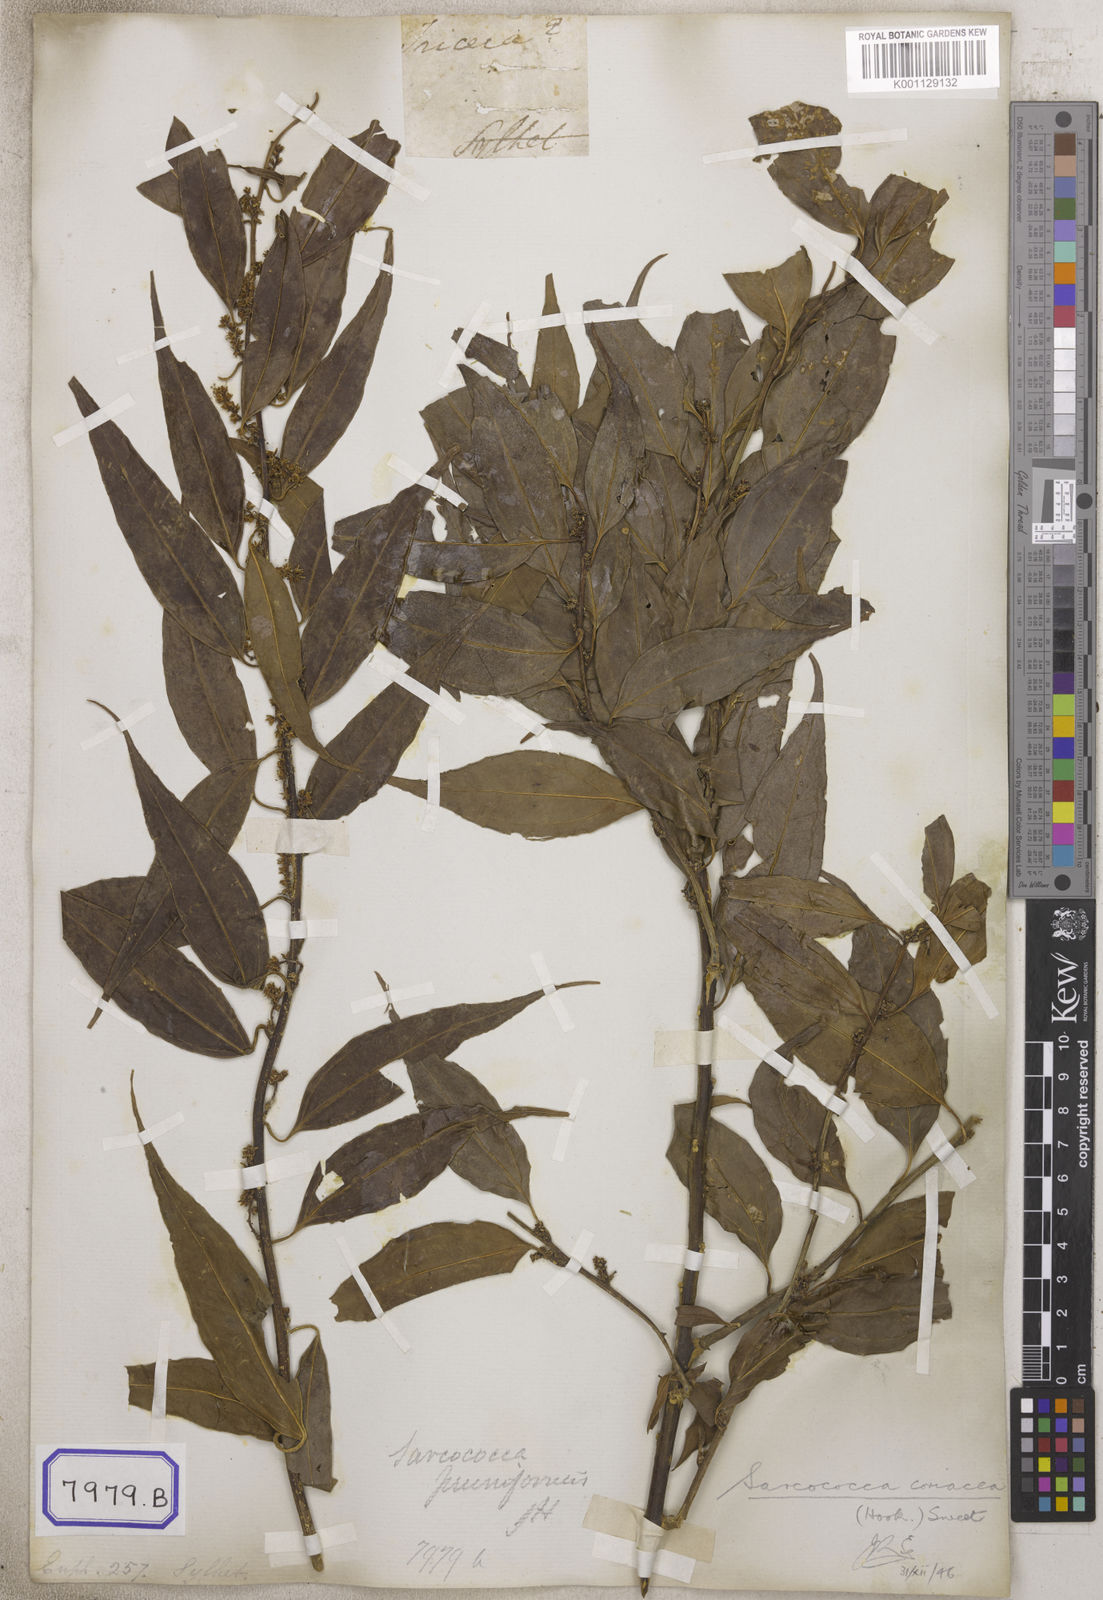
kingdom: Plantae
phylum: Tracheophyta
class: Magnoliopsida
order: Malpighiales
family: Euphorbiaceae
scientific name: Euphorbiaceae
